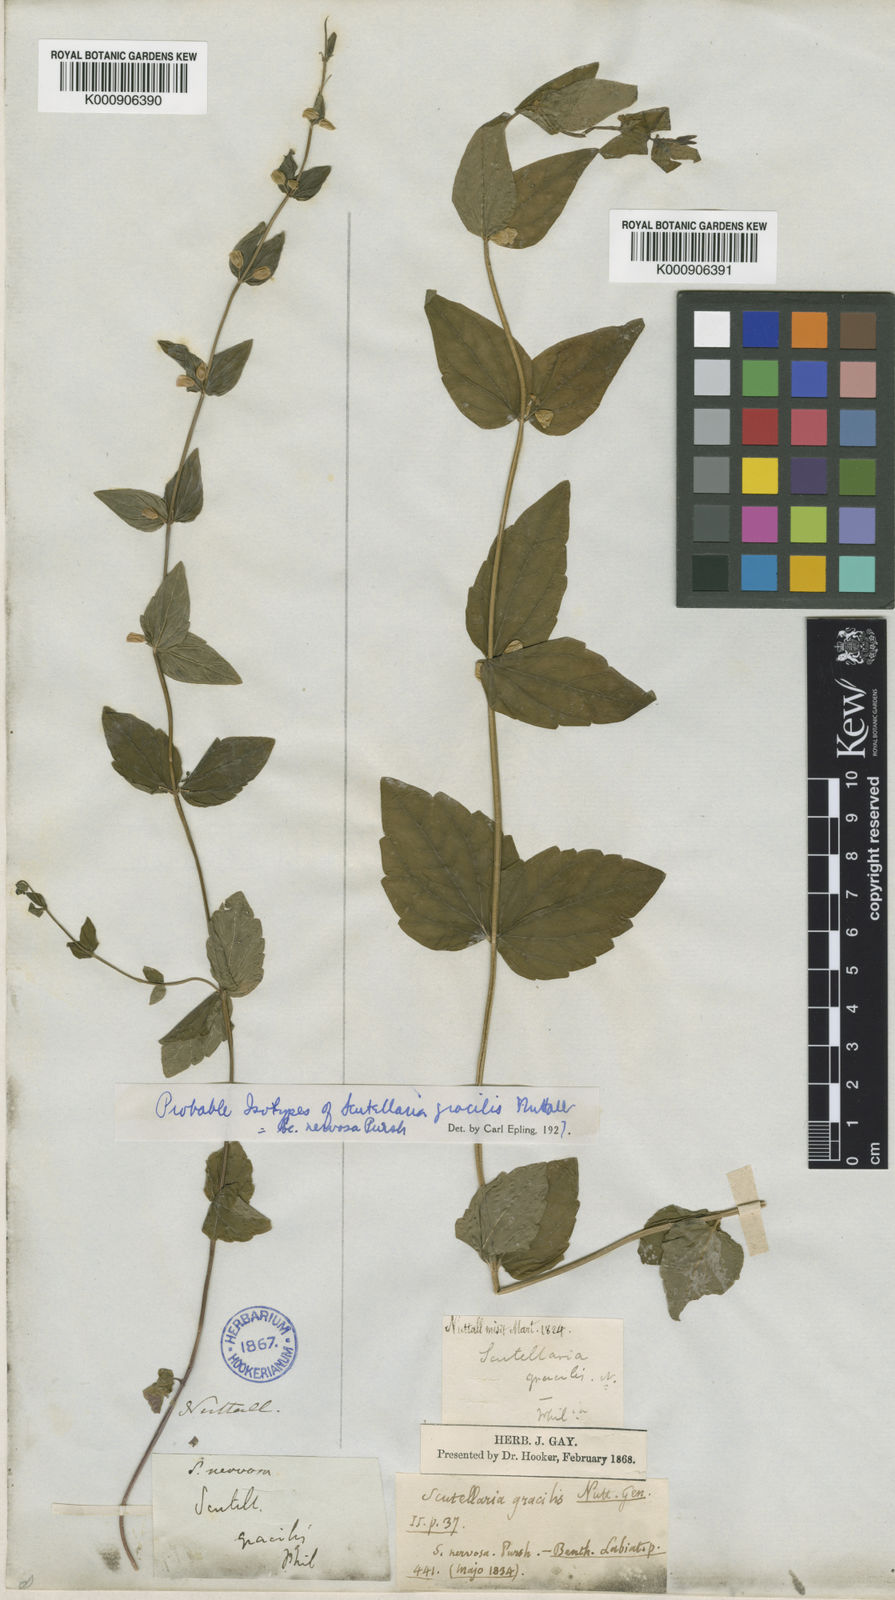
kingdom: Plantae
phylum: Tracheophyta
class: Magnoliopsida
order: Lamiales
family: Lamiaceae
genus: Scutellaria
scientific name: Scutellaria nervosa
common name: Bottomland skullcap
